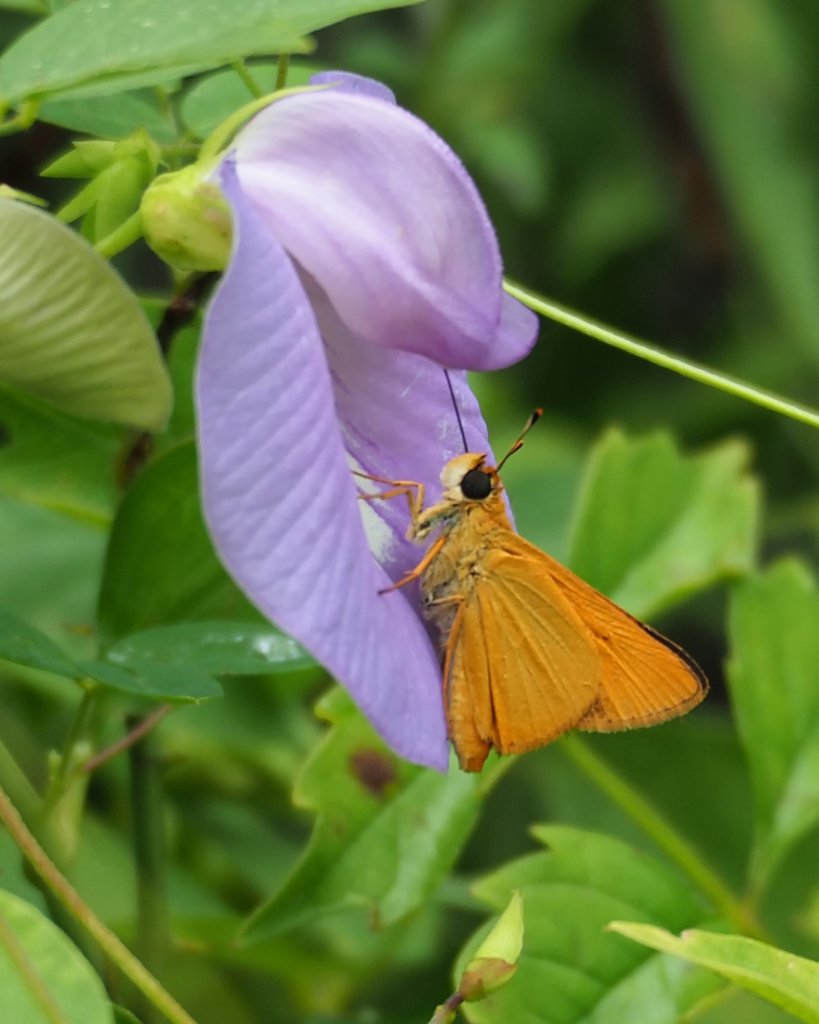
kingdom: Animalia
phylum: Arthropoda
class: Insecta
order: Lepidoptera
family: Hesperiidae
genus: Atrytone
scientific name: Atrytone delaware
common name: Delaware Skipper
